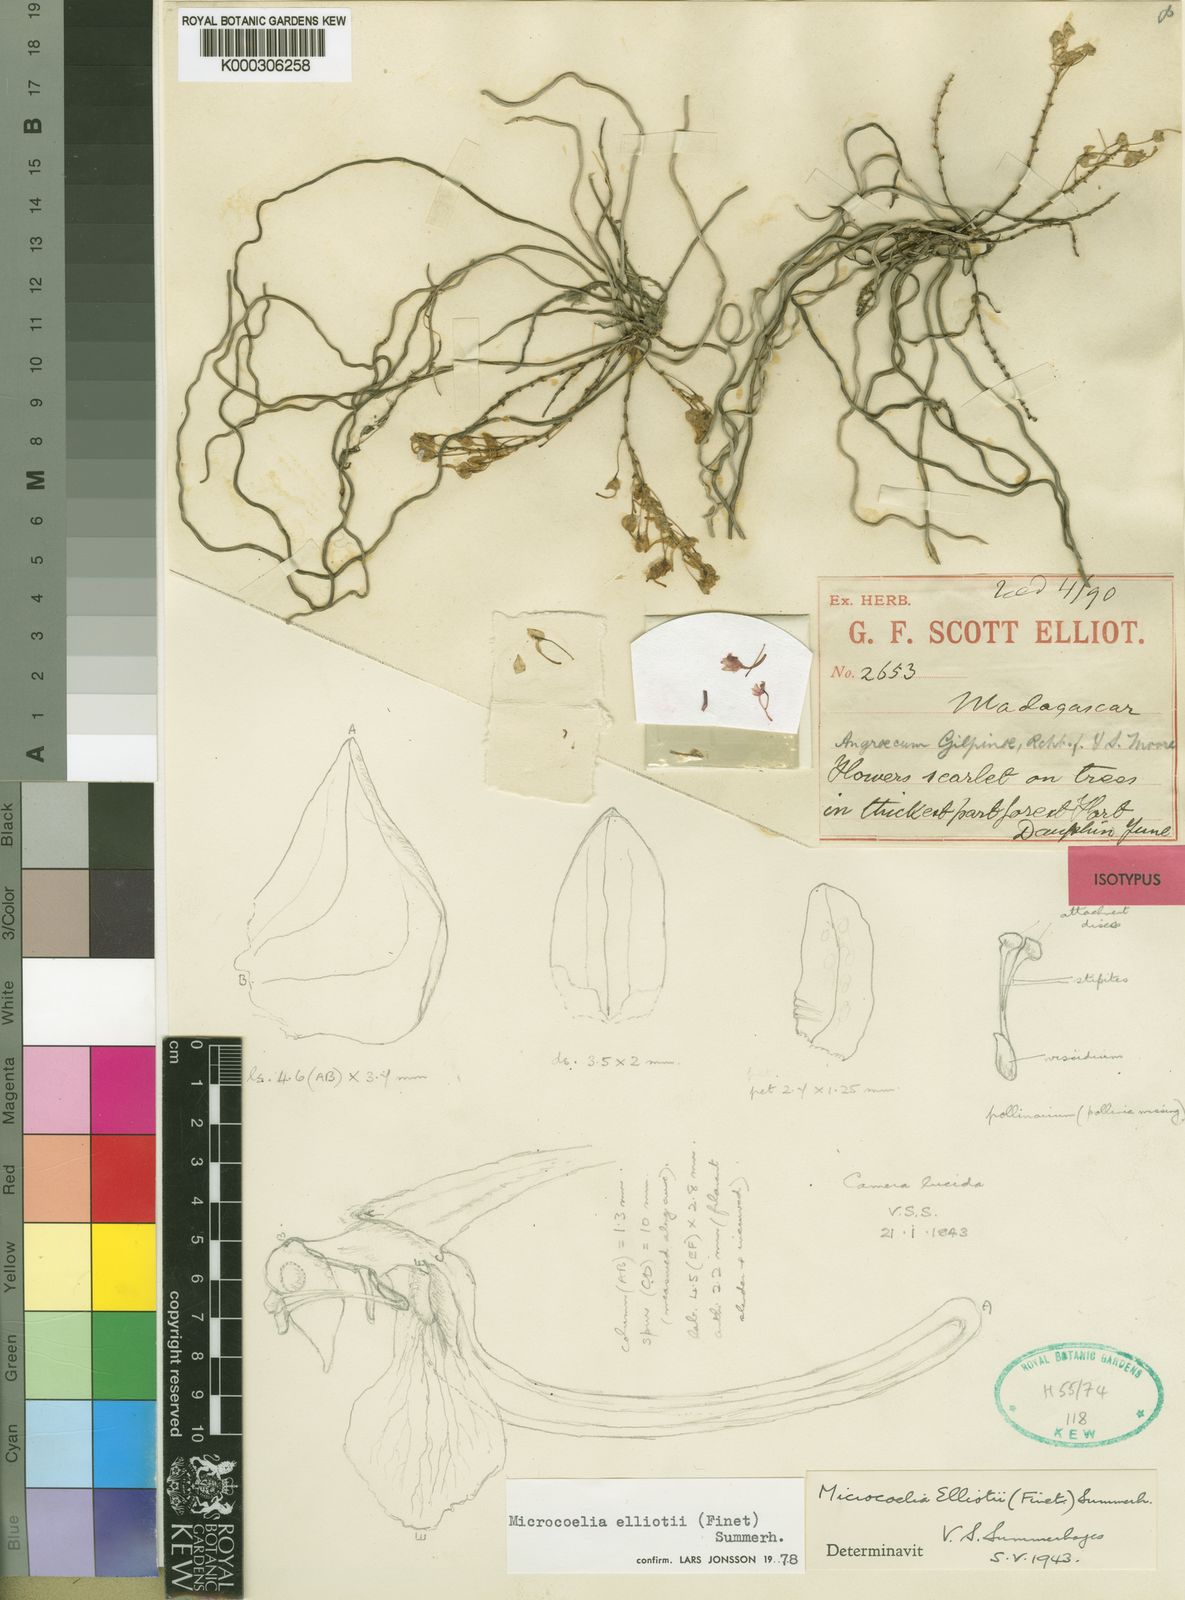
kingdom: Plantae
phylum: Tracheophyta
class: Liliopsida
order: Asparagales
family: Orchidaceae
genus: Microcoelia
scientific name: Microcoelia elliotii
